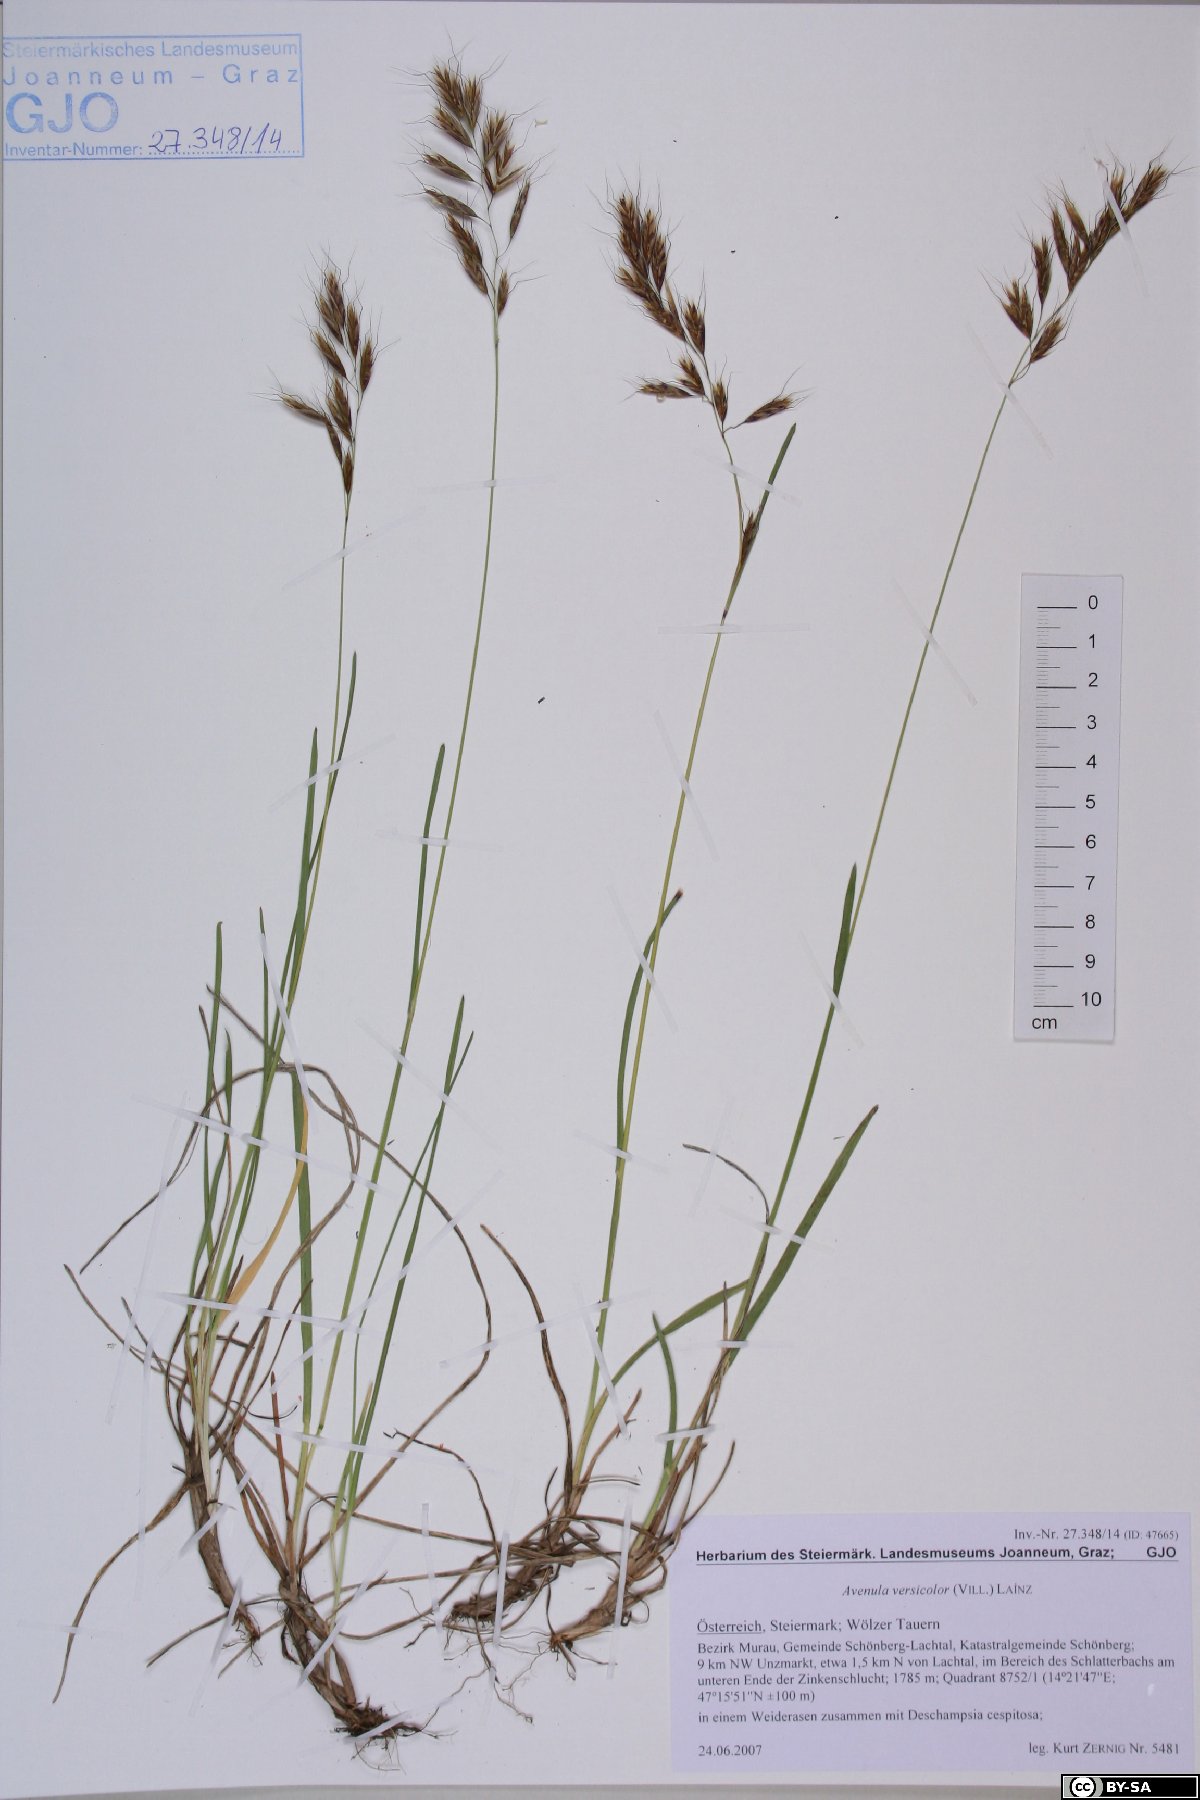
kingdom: Plantae
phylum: Tracheophyta
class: Liliopsida
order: Poales
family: Poaceae
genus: Helictochloa
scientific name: Helictochloa versicolor
